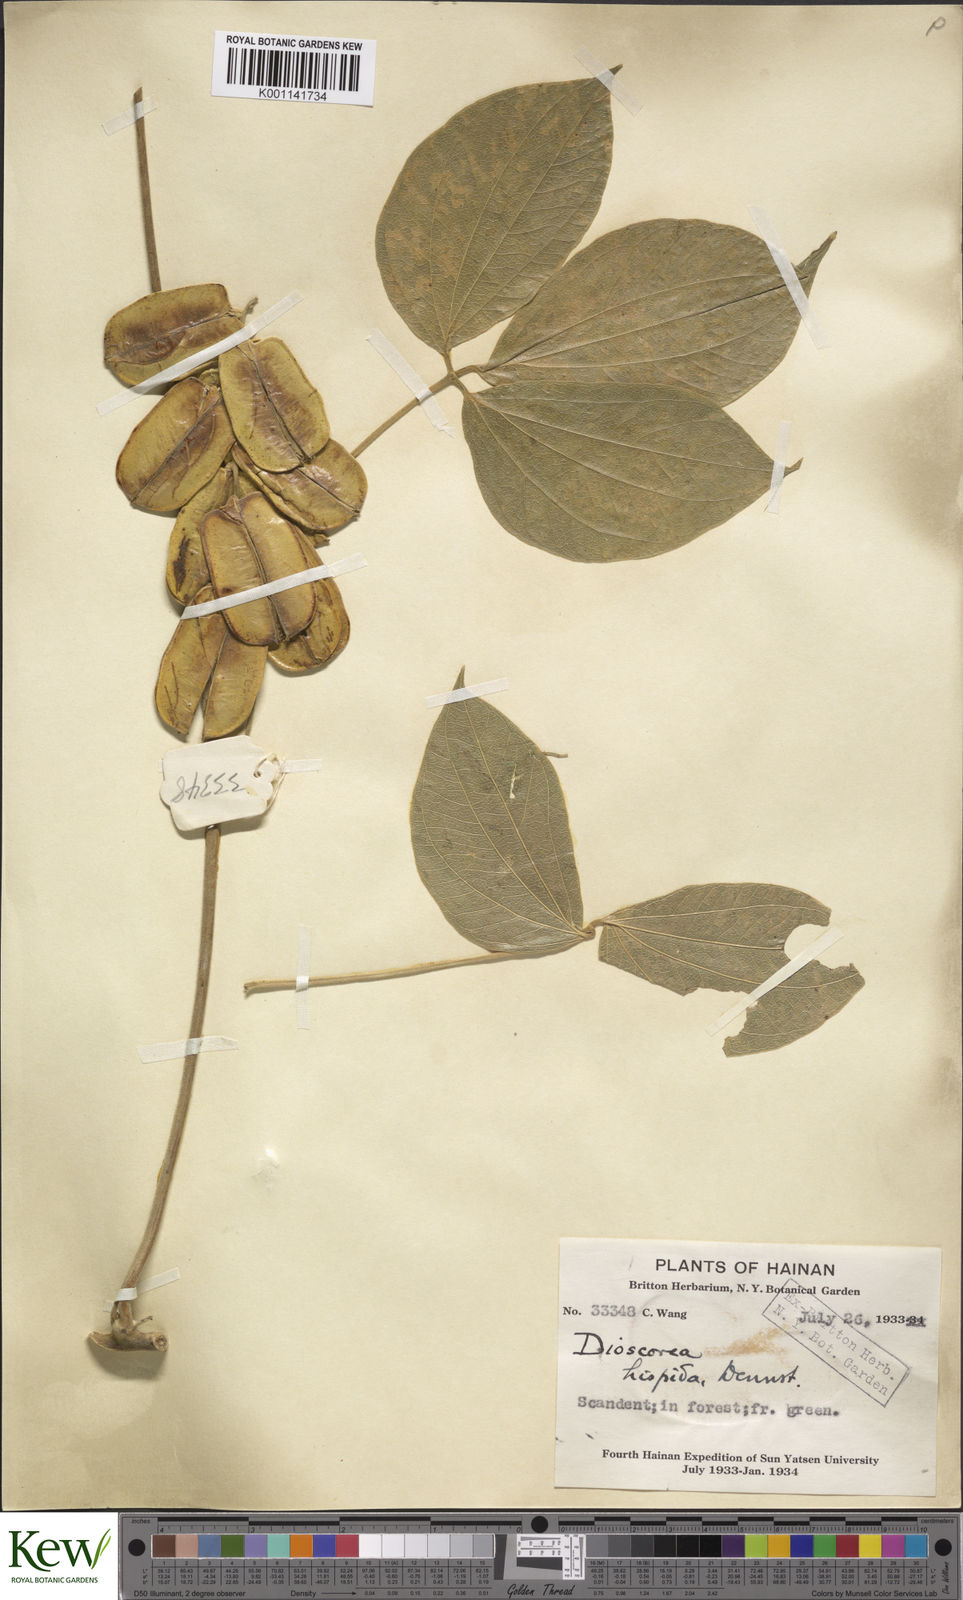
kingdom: Plantae
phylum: Tracheophyta
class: Liliopsida
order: Dioscoreales
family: Dioscoreaceae
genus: Dioscorea
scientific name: Dioscorea hispida
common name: Asiatic bitter yam
